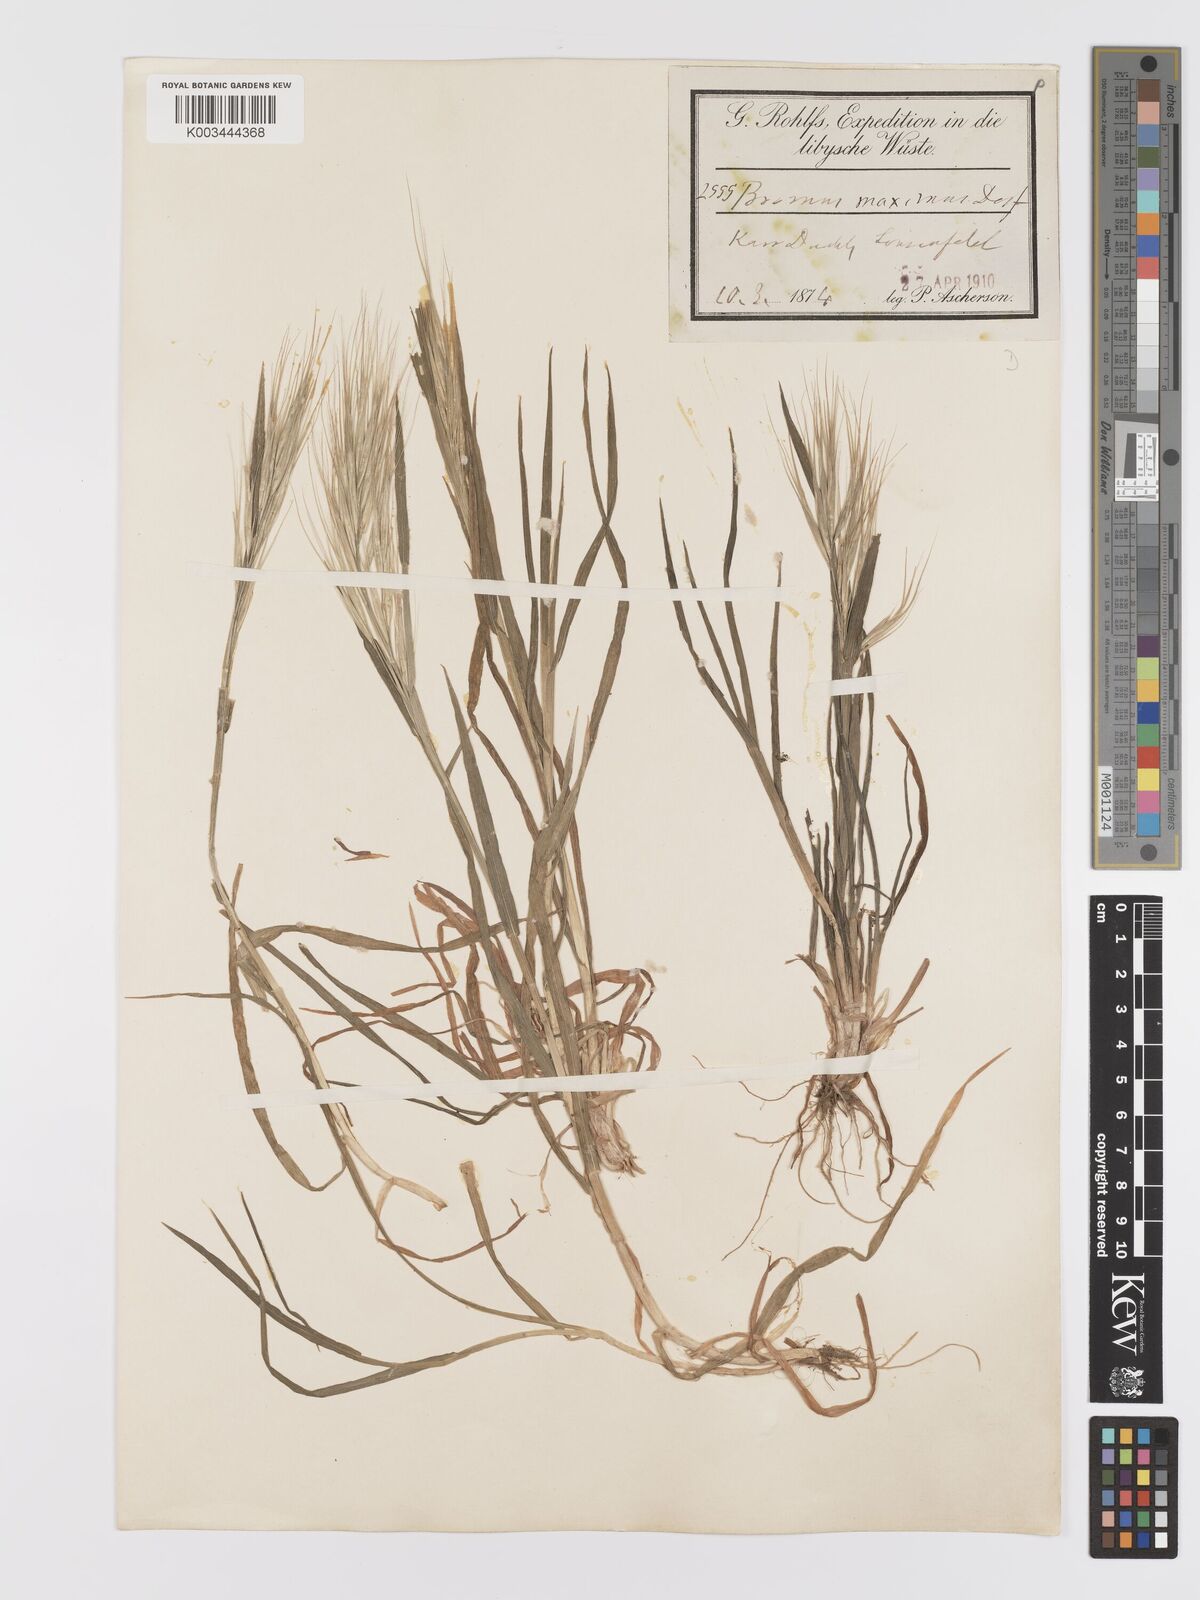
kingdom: Plantae
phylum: Tracheophyta
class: Liliopsida
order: Poales
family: Poaceae
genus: Bromus
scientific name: Bromus diandrus
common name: Ripgut brome
